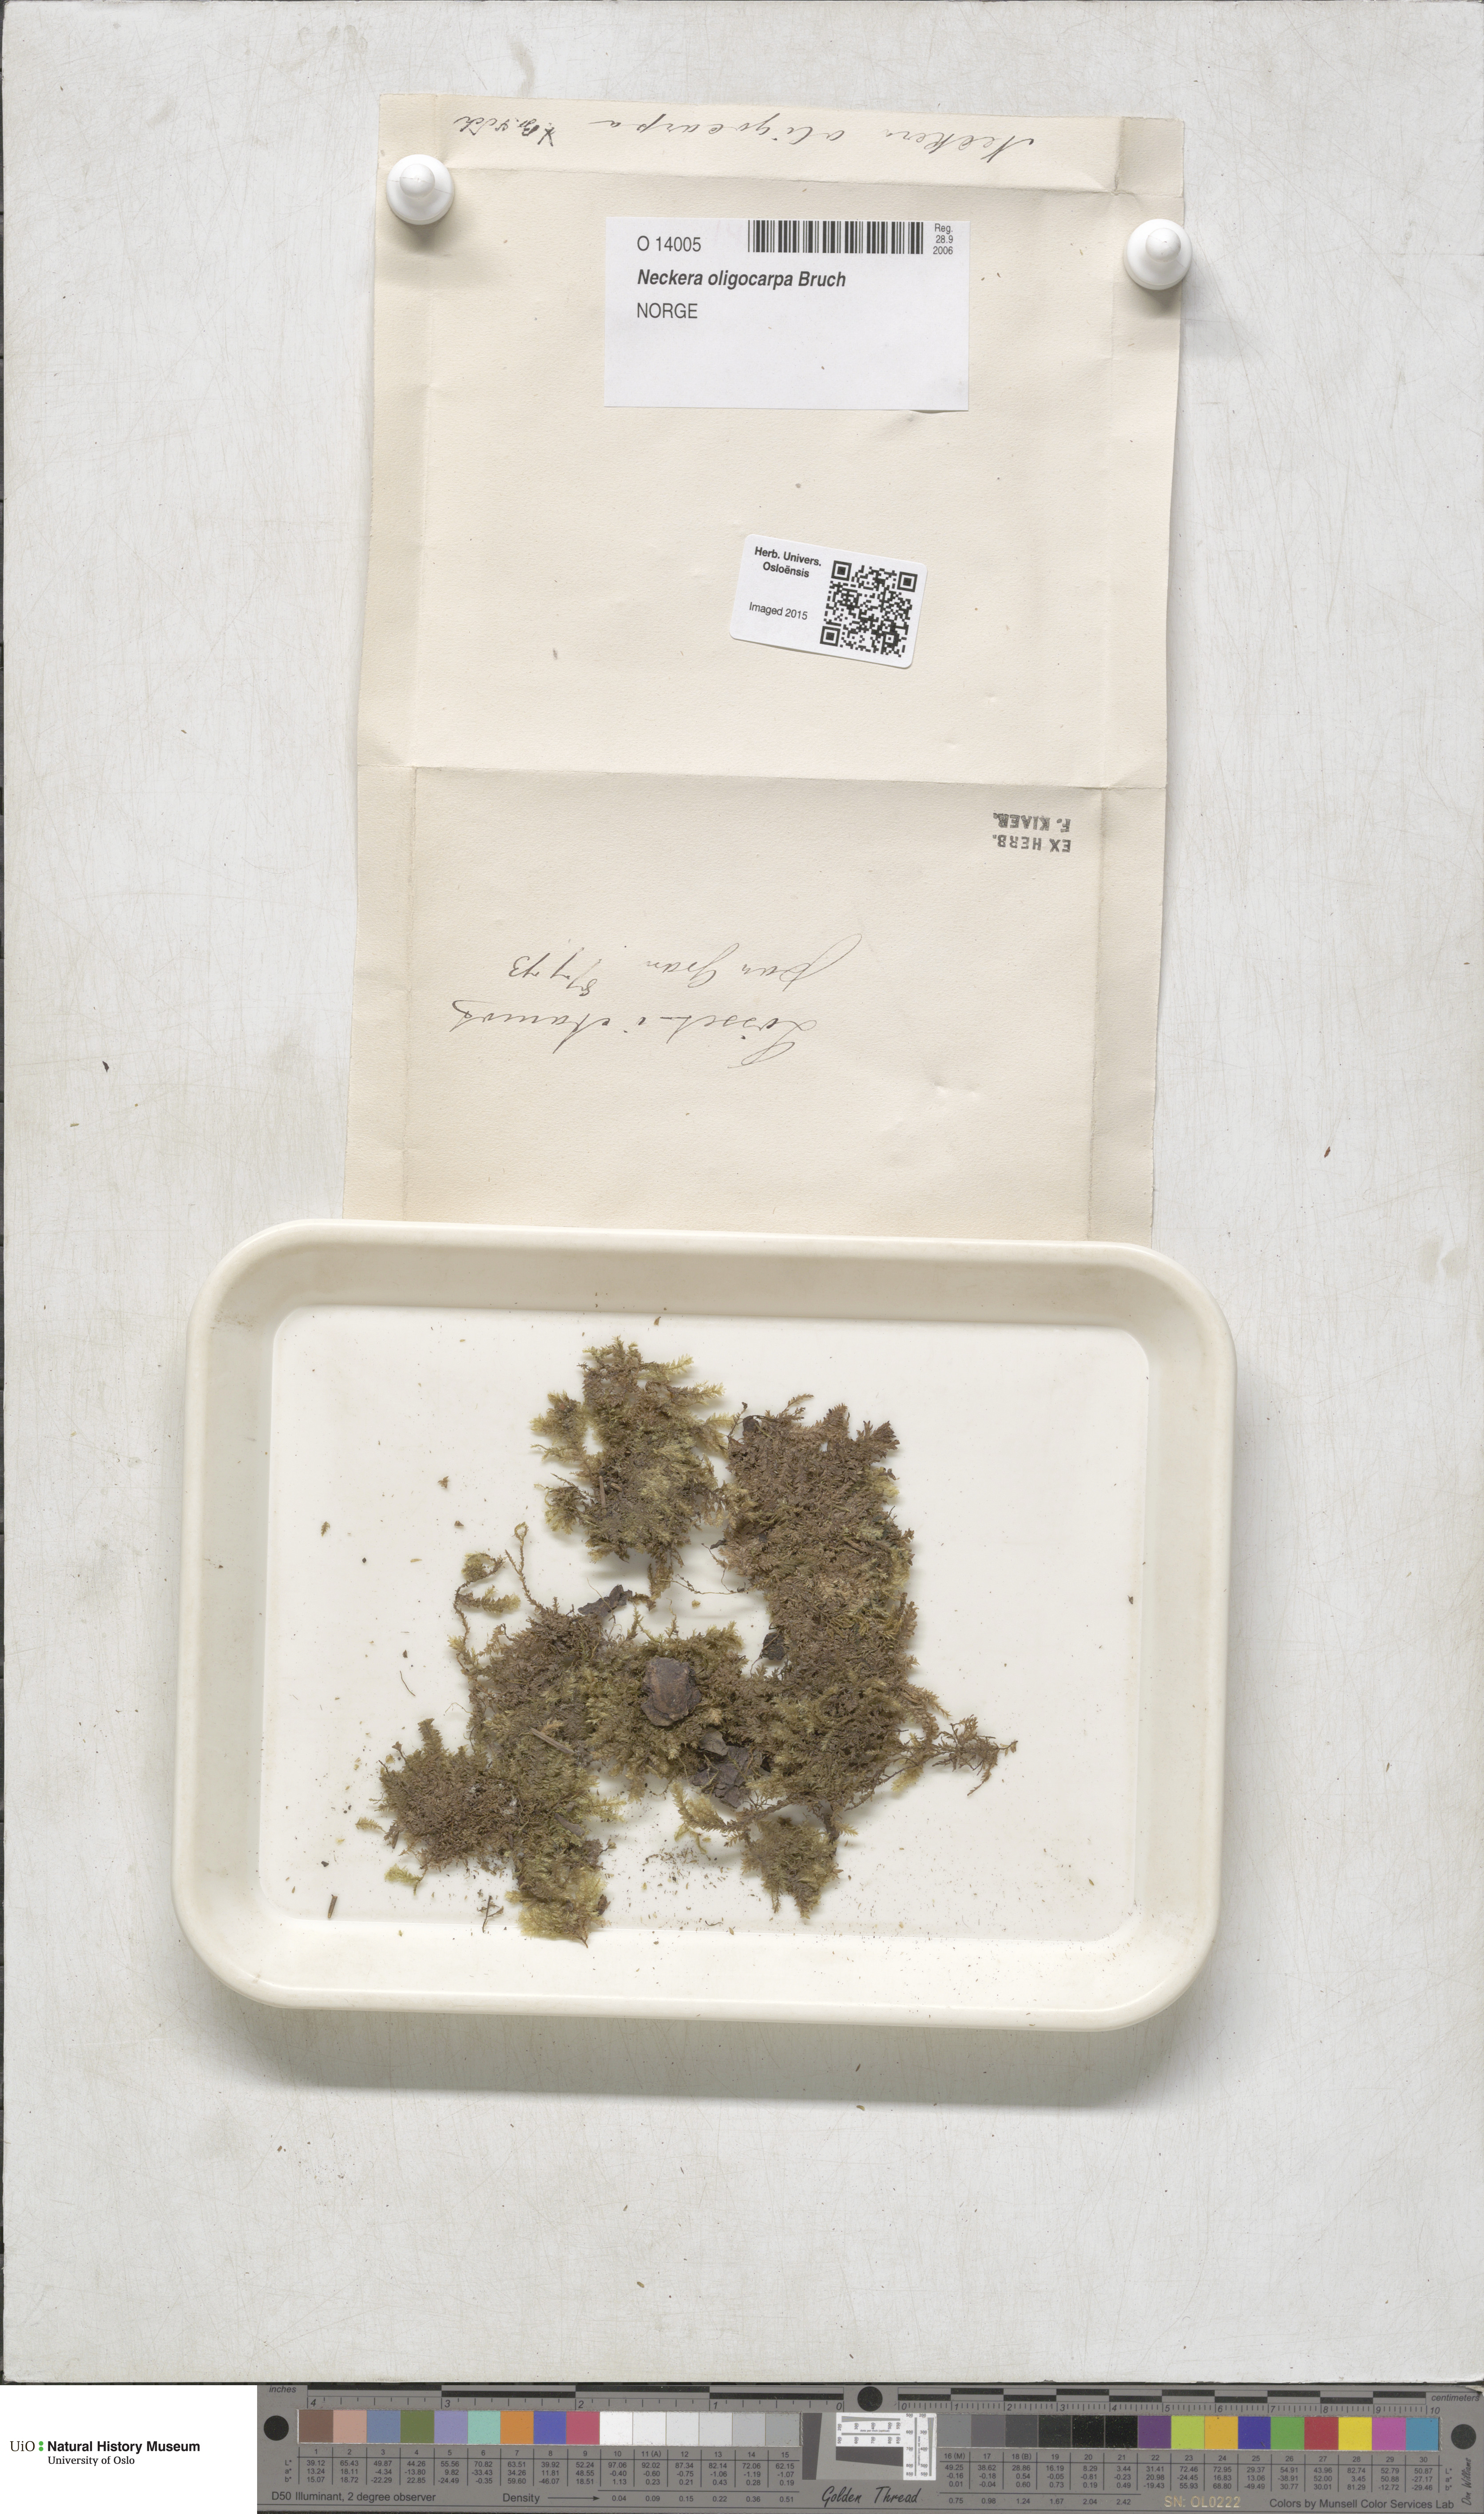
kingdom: Plantae
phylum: Bryophyta
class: Bryopsida
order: Hypnales
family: Neckeraceae
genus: Neckera
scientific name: Neckera oligocarpa
